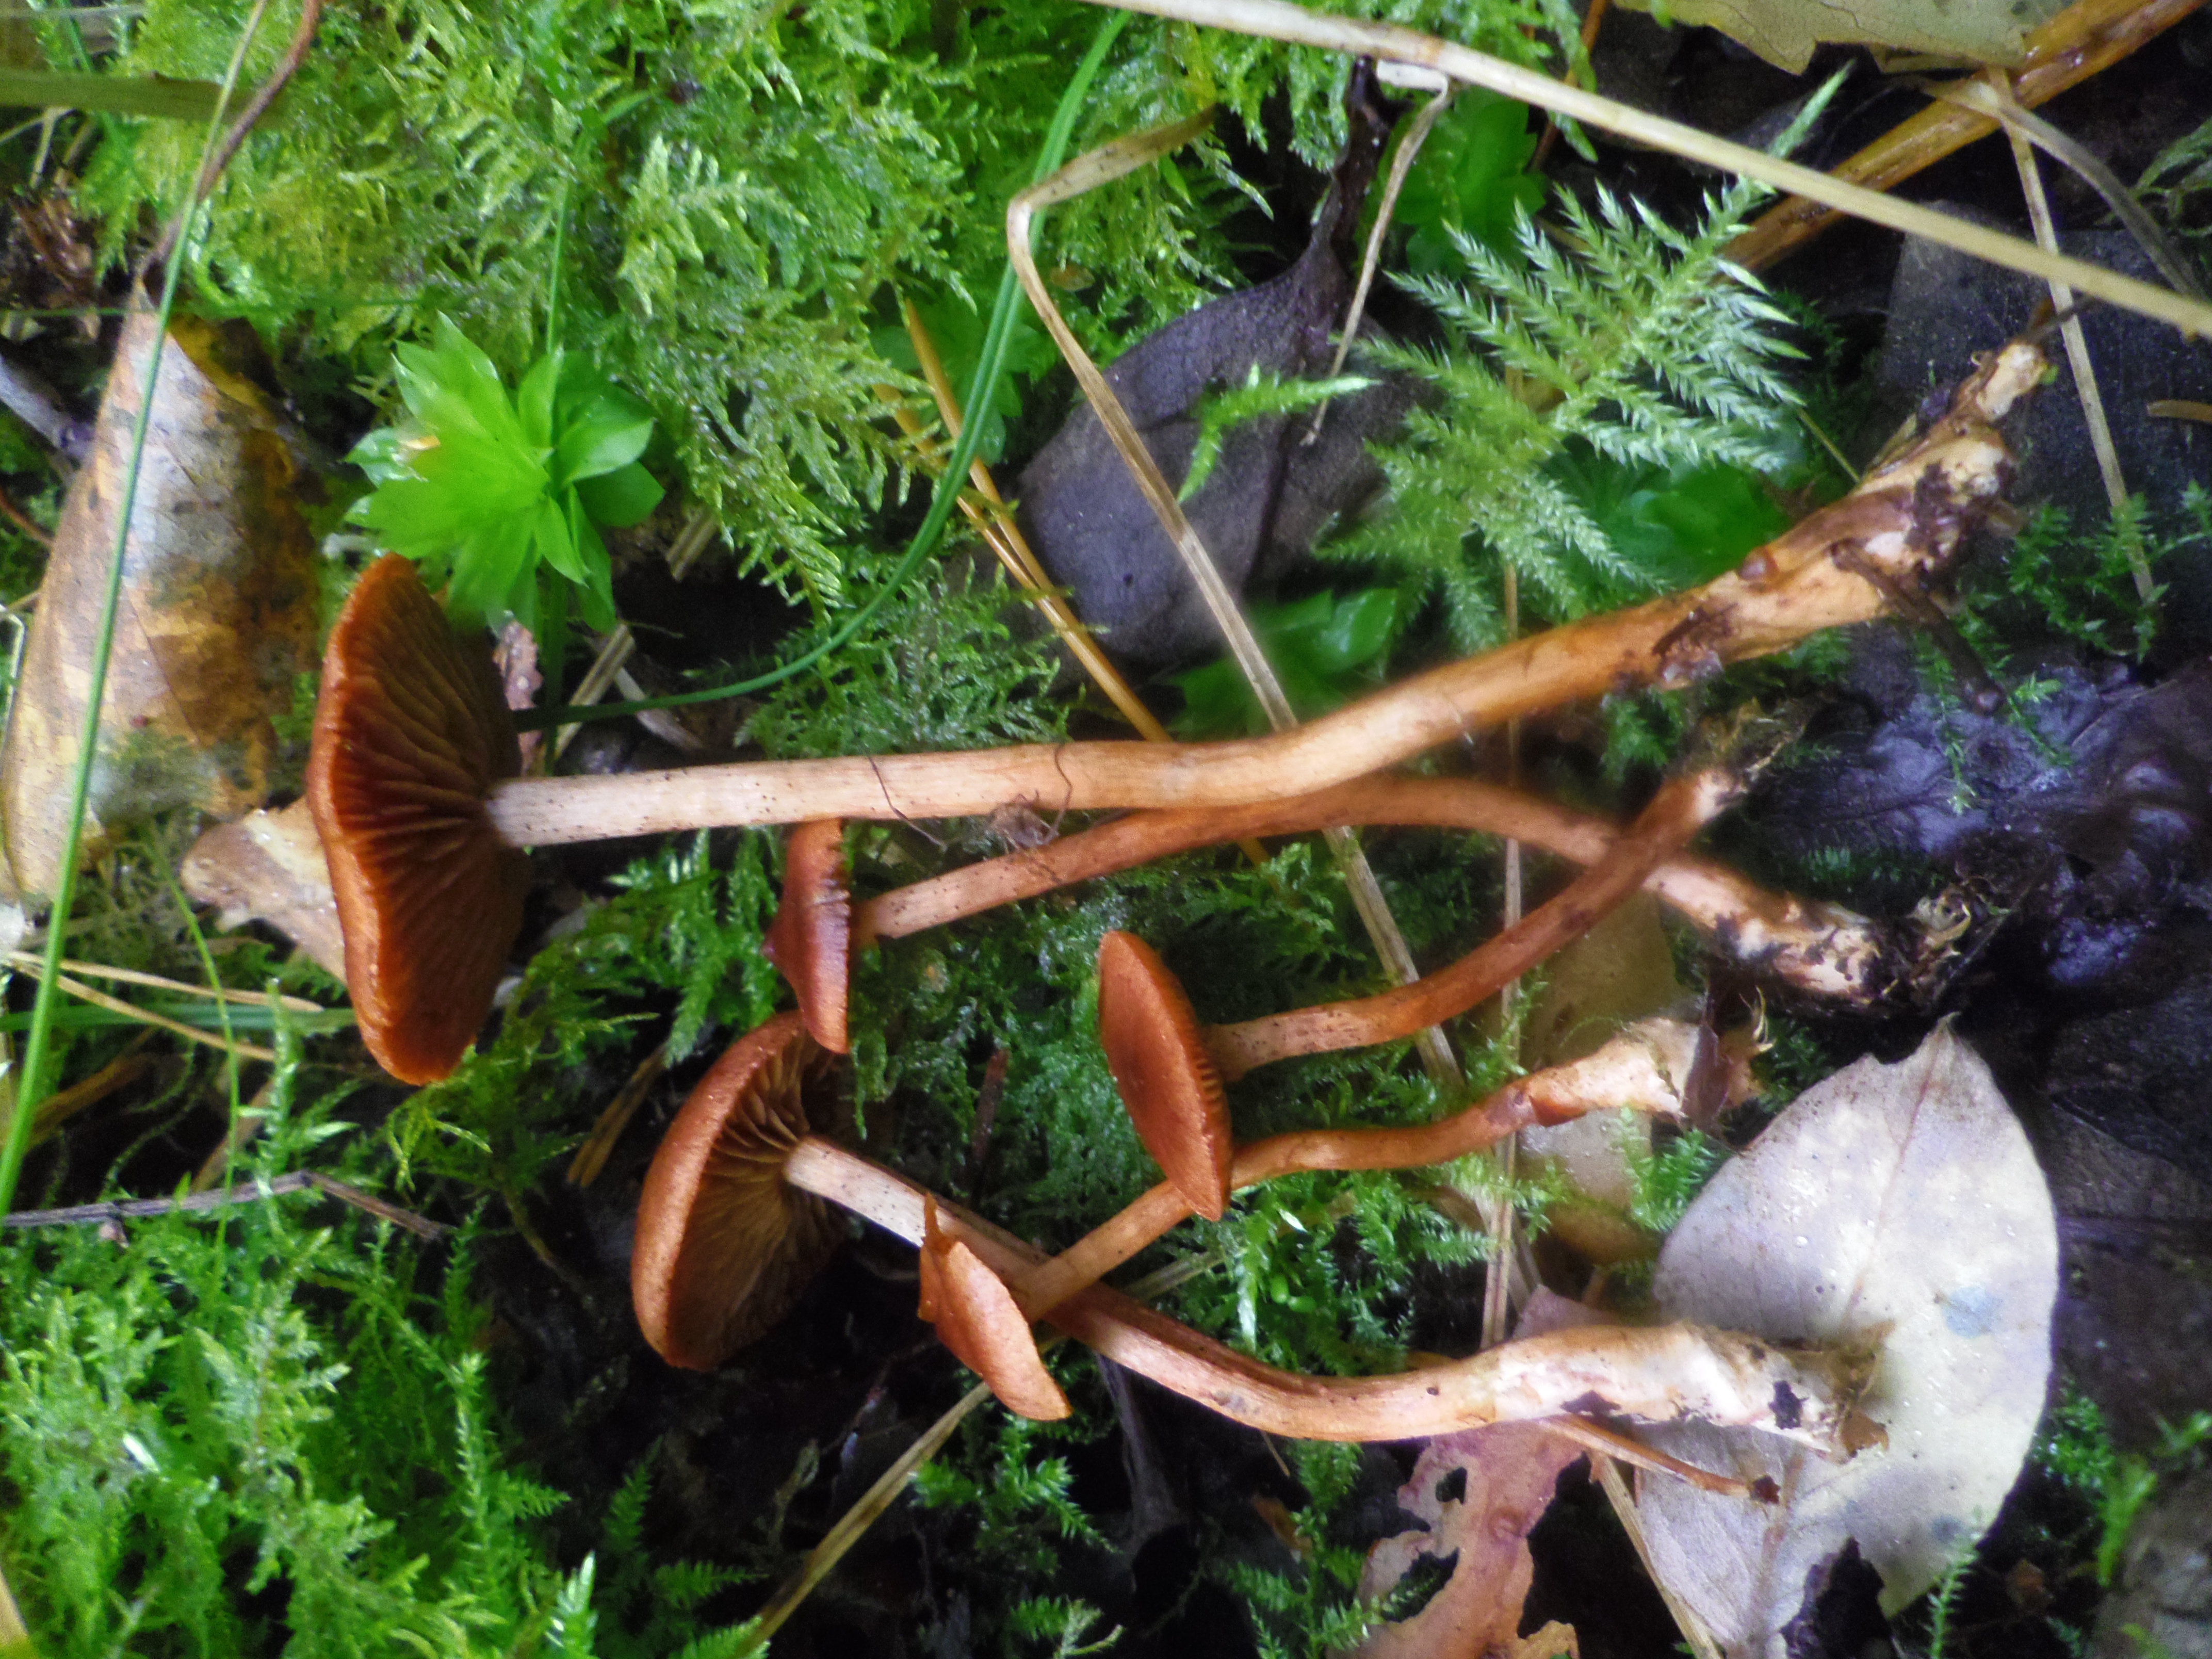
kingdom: Fungi
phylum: Basidiomycota
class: Agaricomycetes
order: Agaricales
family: Cortinariaceae
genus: Cortinarius
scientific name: Cortinarius uliginosus
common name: Marsh webcap
